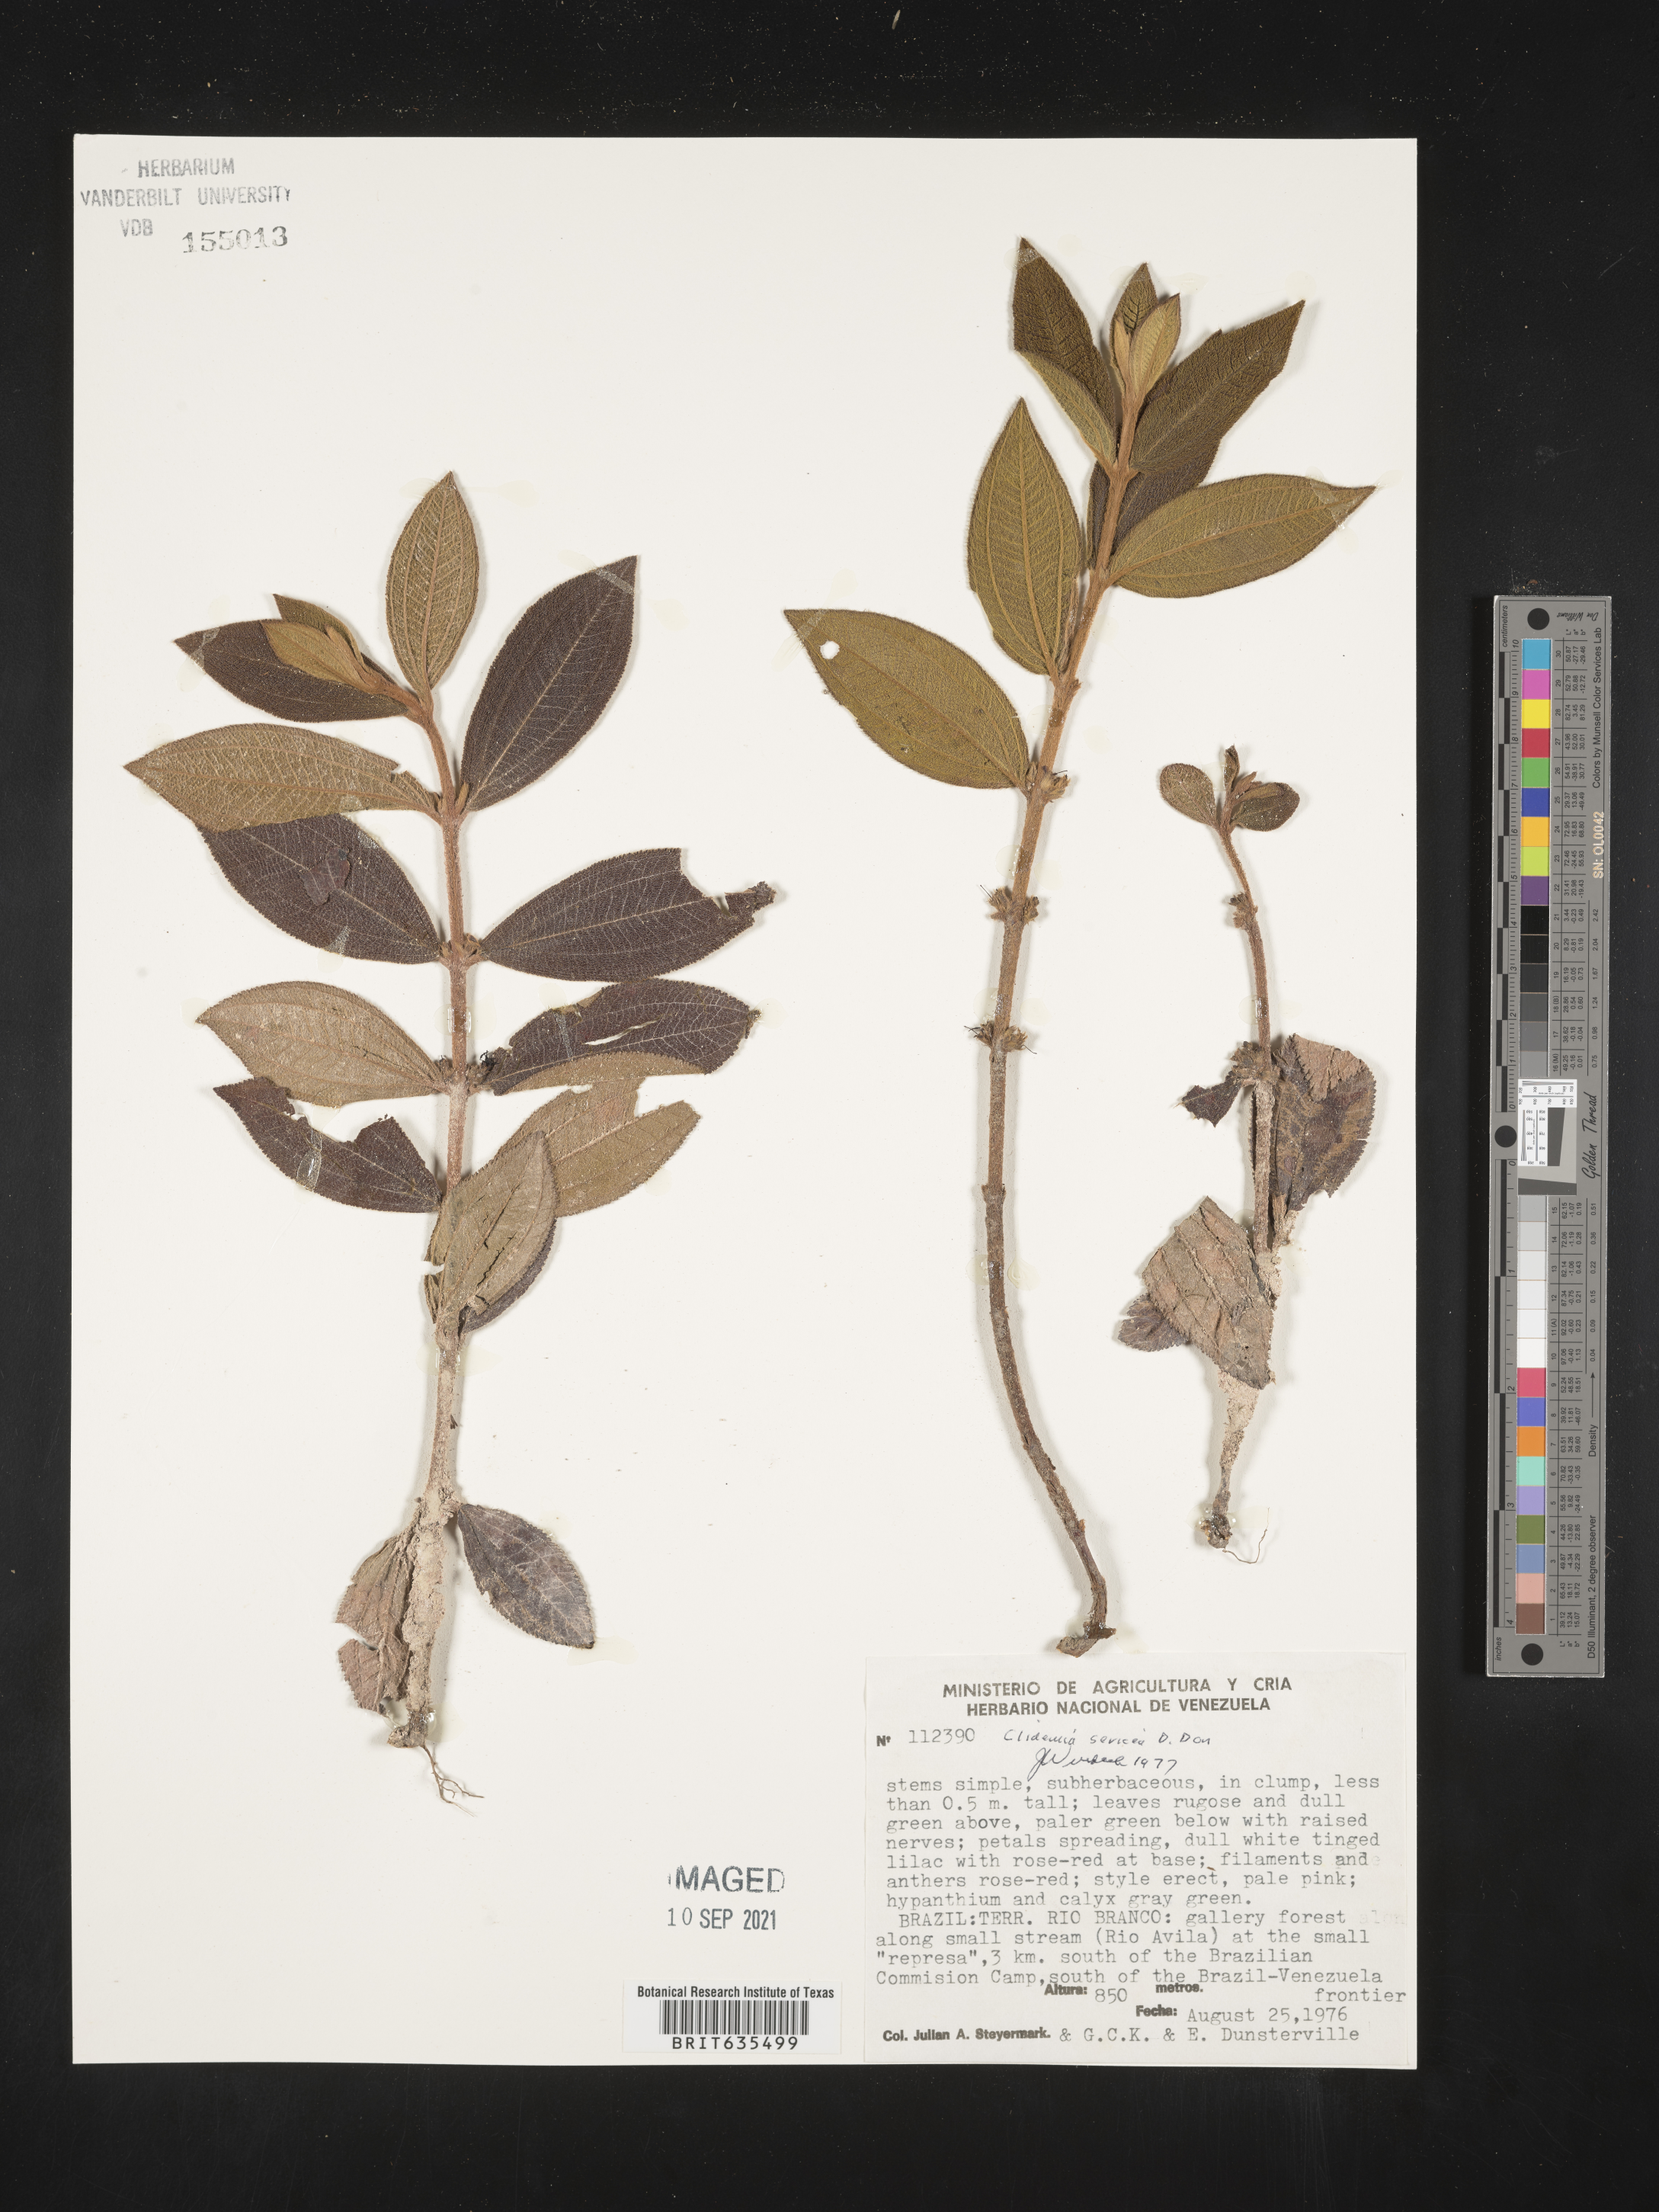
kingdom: Plantae
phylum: Tracheophyta
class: Magnoliopsida
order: Myrtales
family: Melastomataceae
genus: Miconia
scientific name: Miconia
